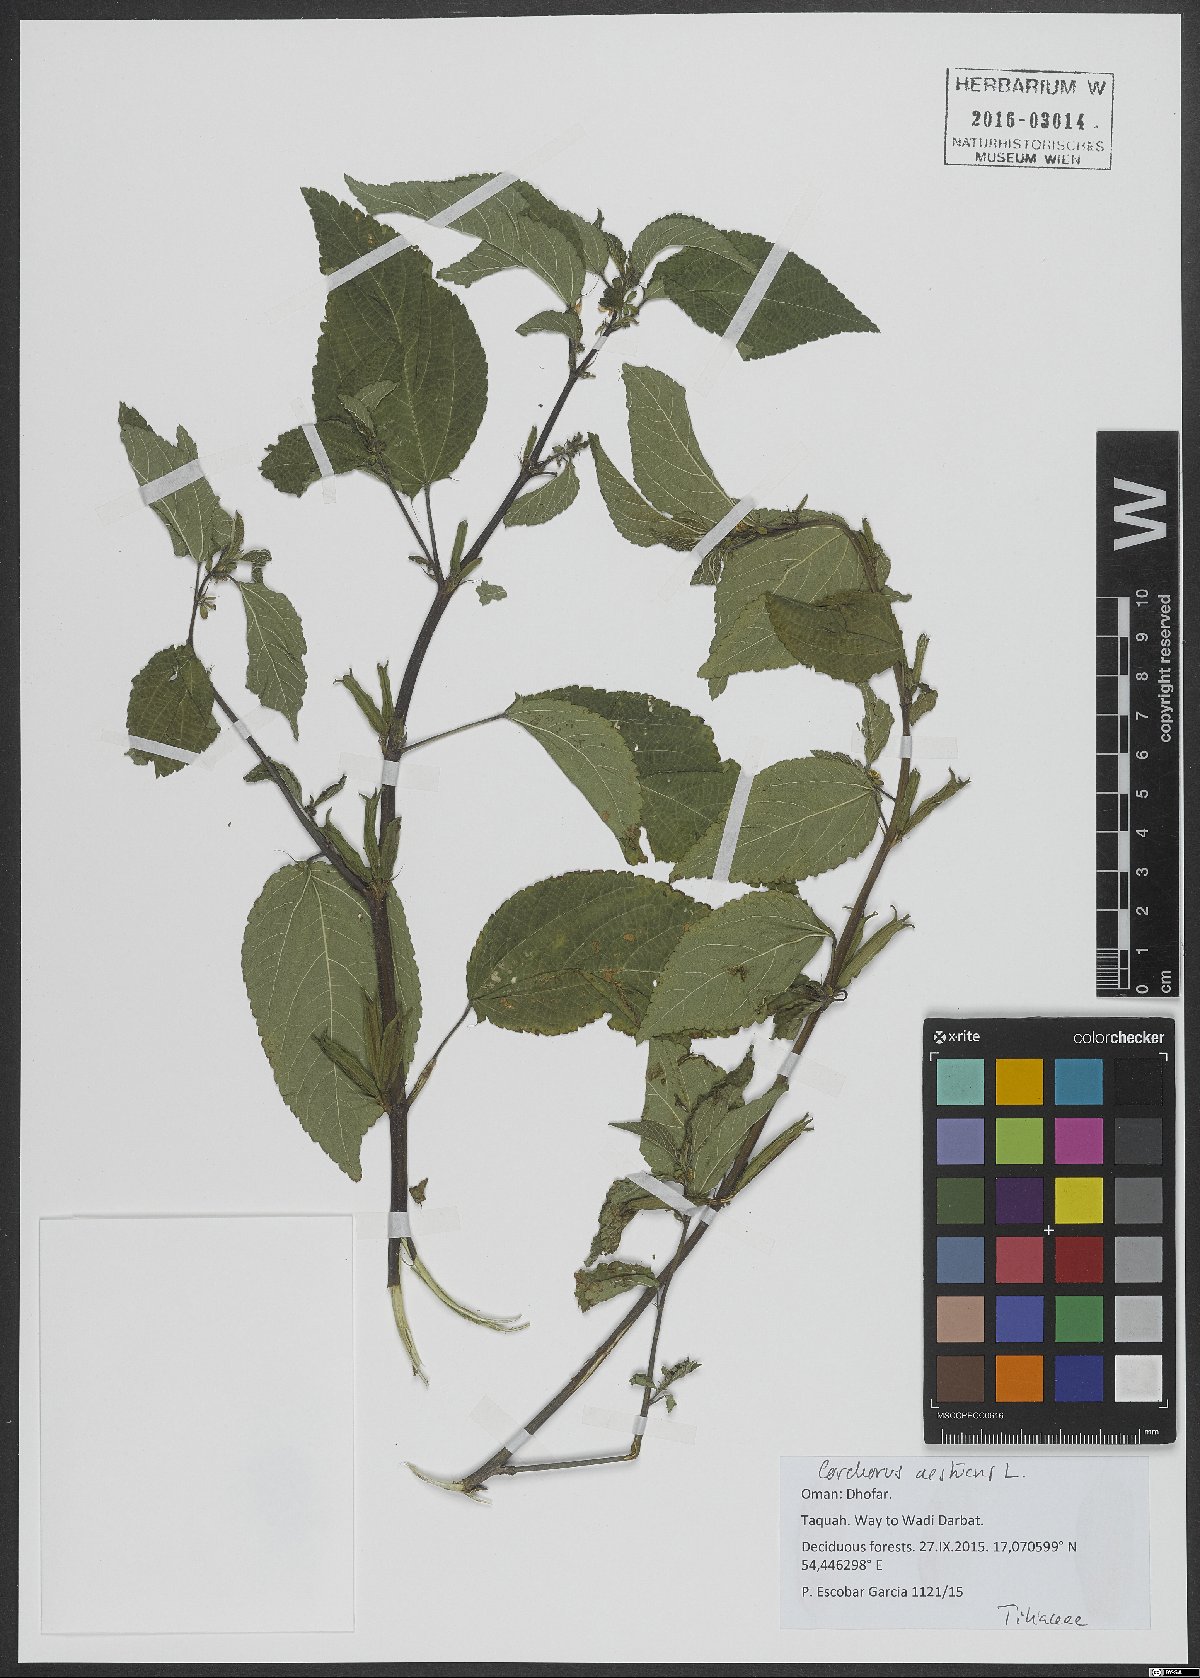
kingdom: Plantae
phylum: Tracheophyta
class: Magnoliopsida
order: Malvales
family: Malvaceae
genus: Corchorus
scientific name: Corchorus aestuans
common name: Jute
